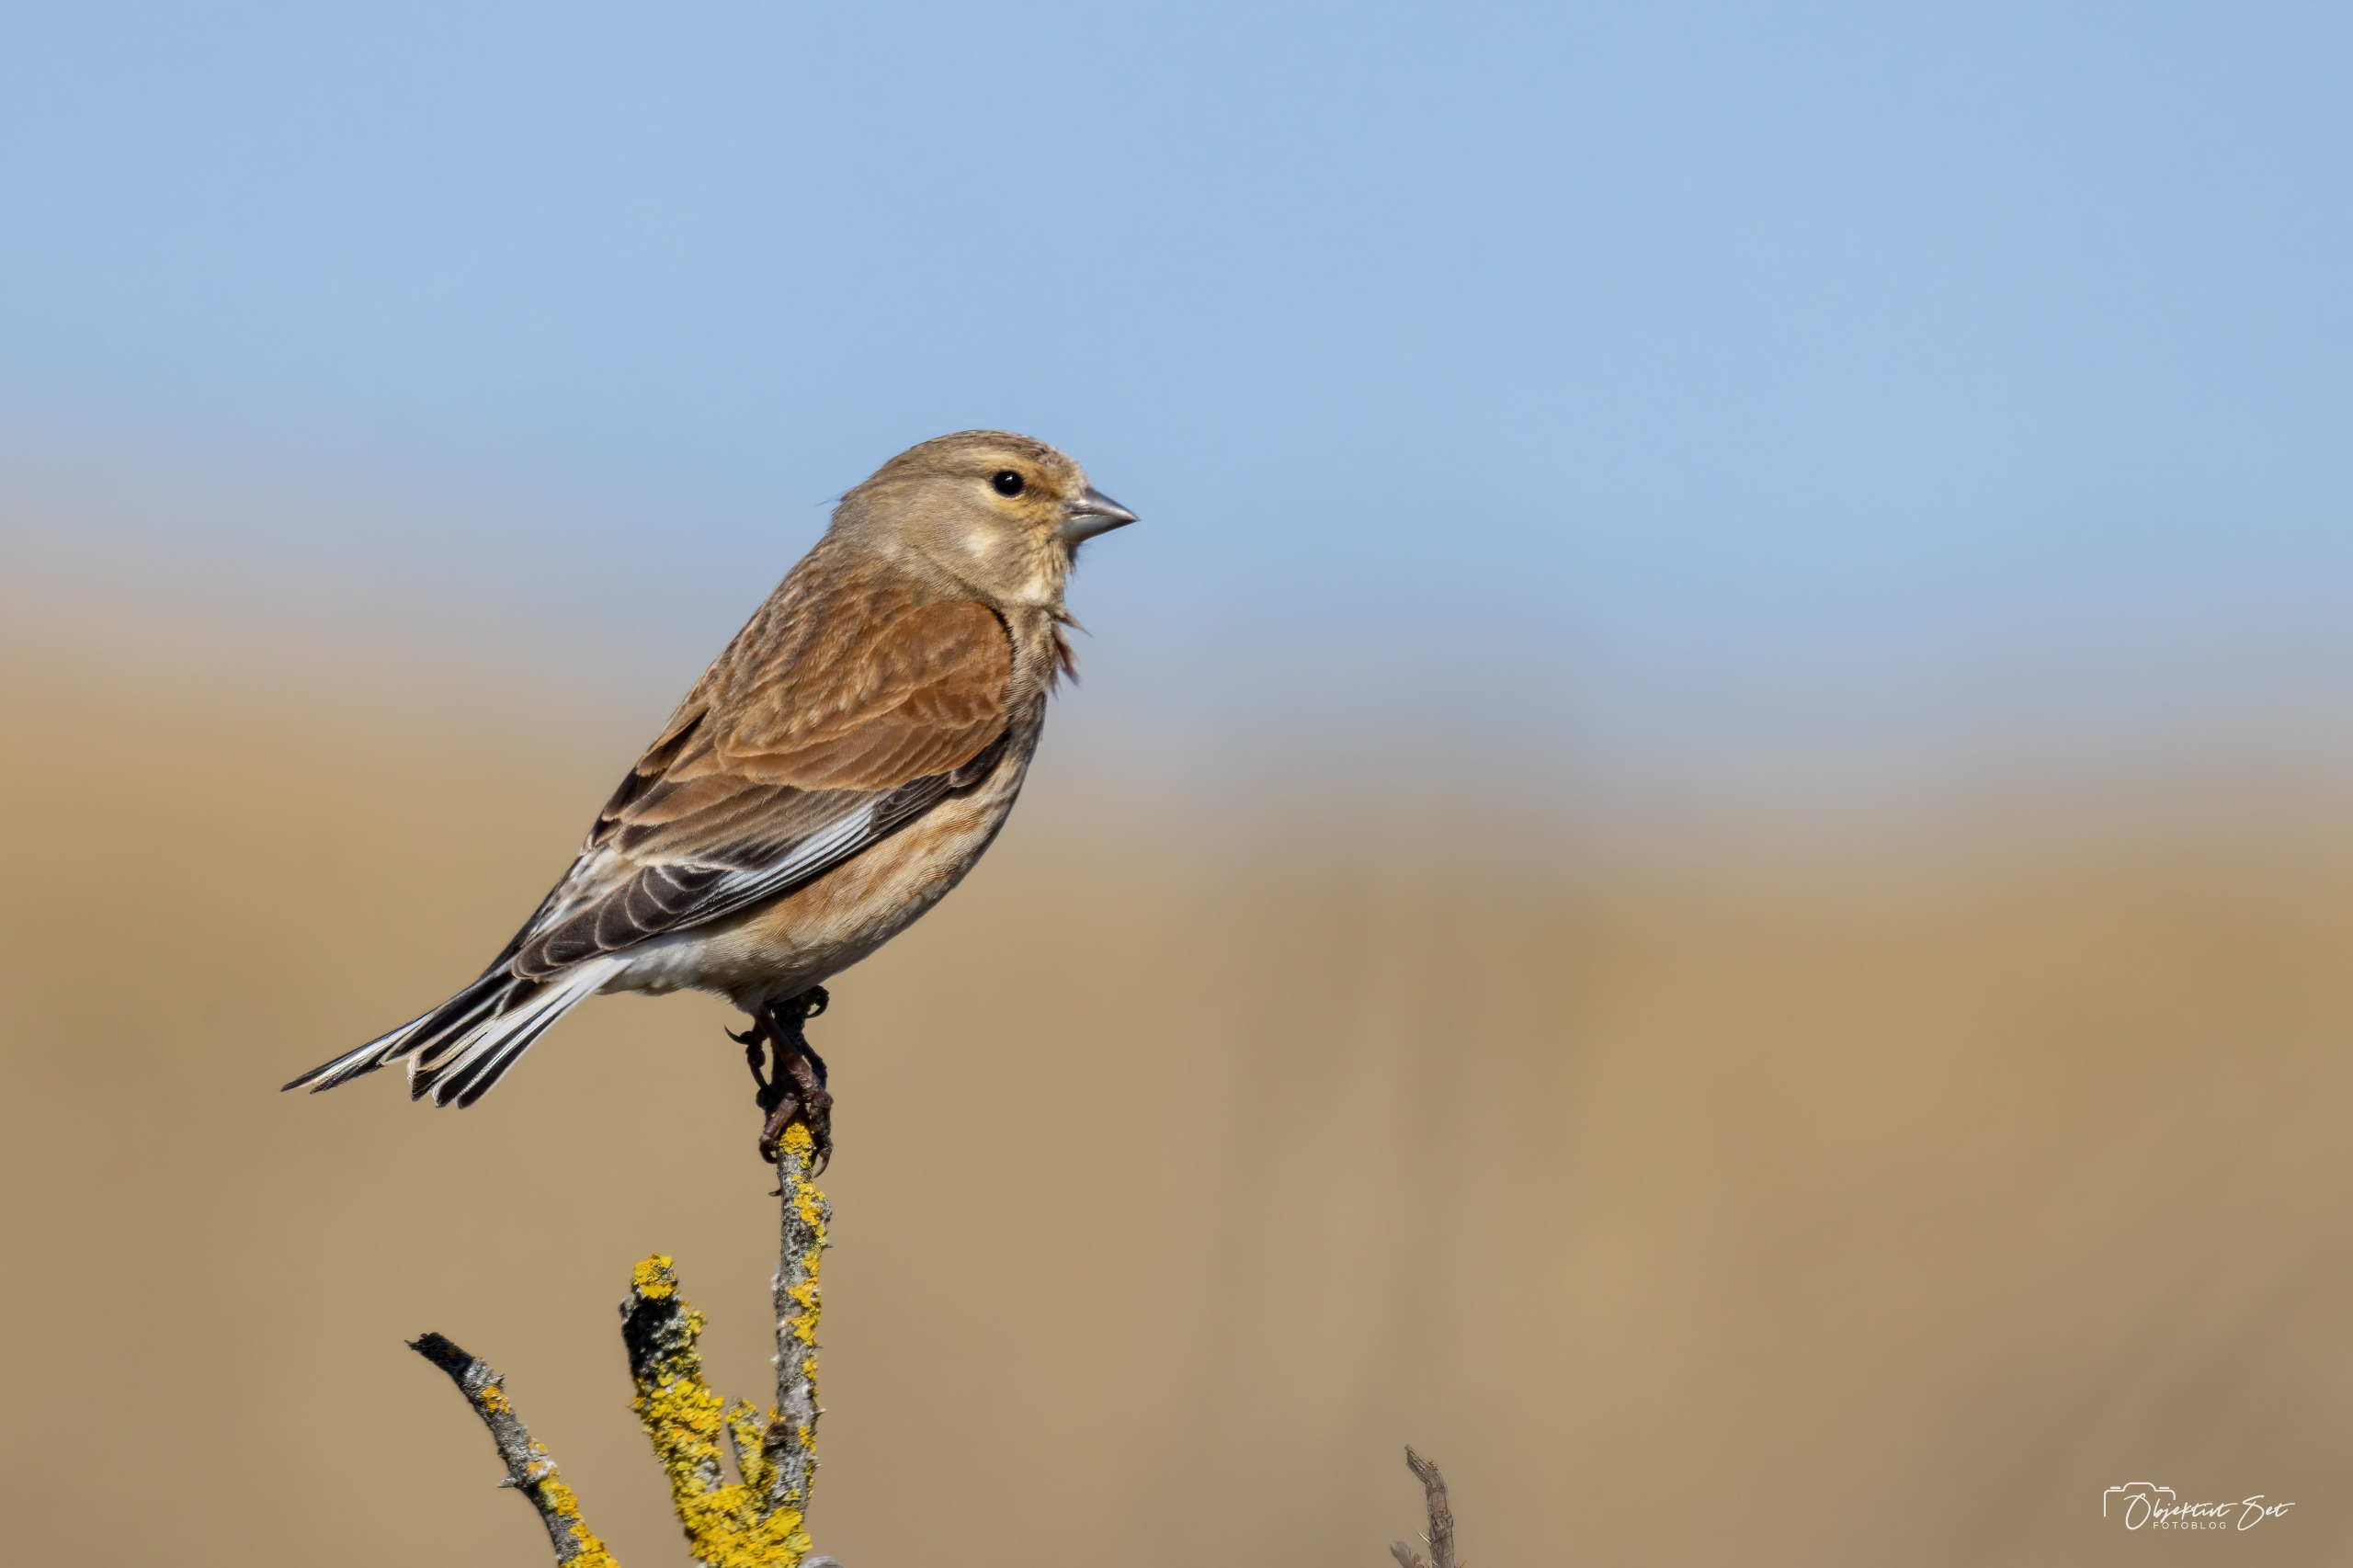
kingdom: Animalia
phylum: Chordata
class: Aves
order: Passeriformes
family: Fringillidae
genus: Linaria
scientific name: Linaria cannabina
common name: Tornirisk
